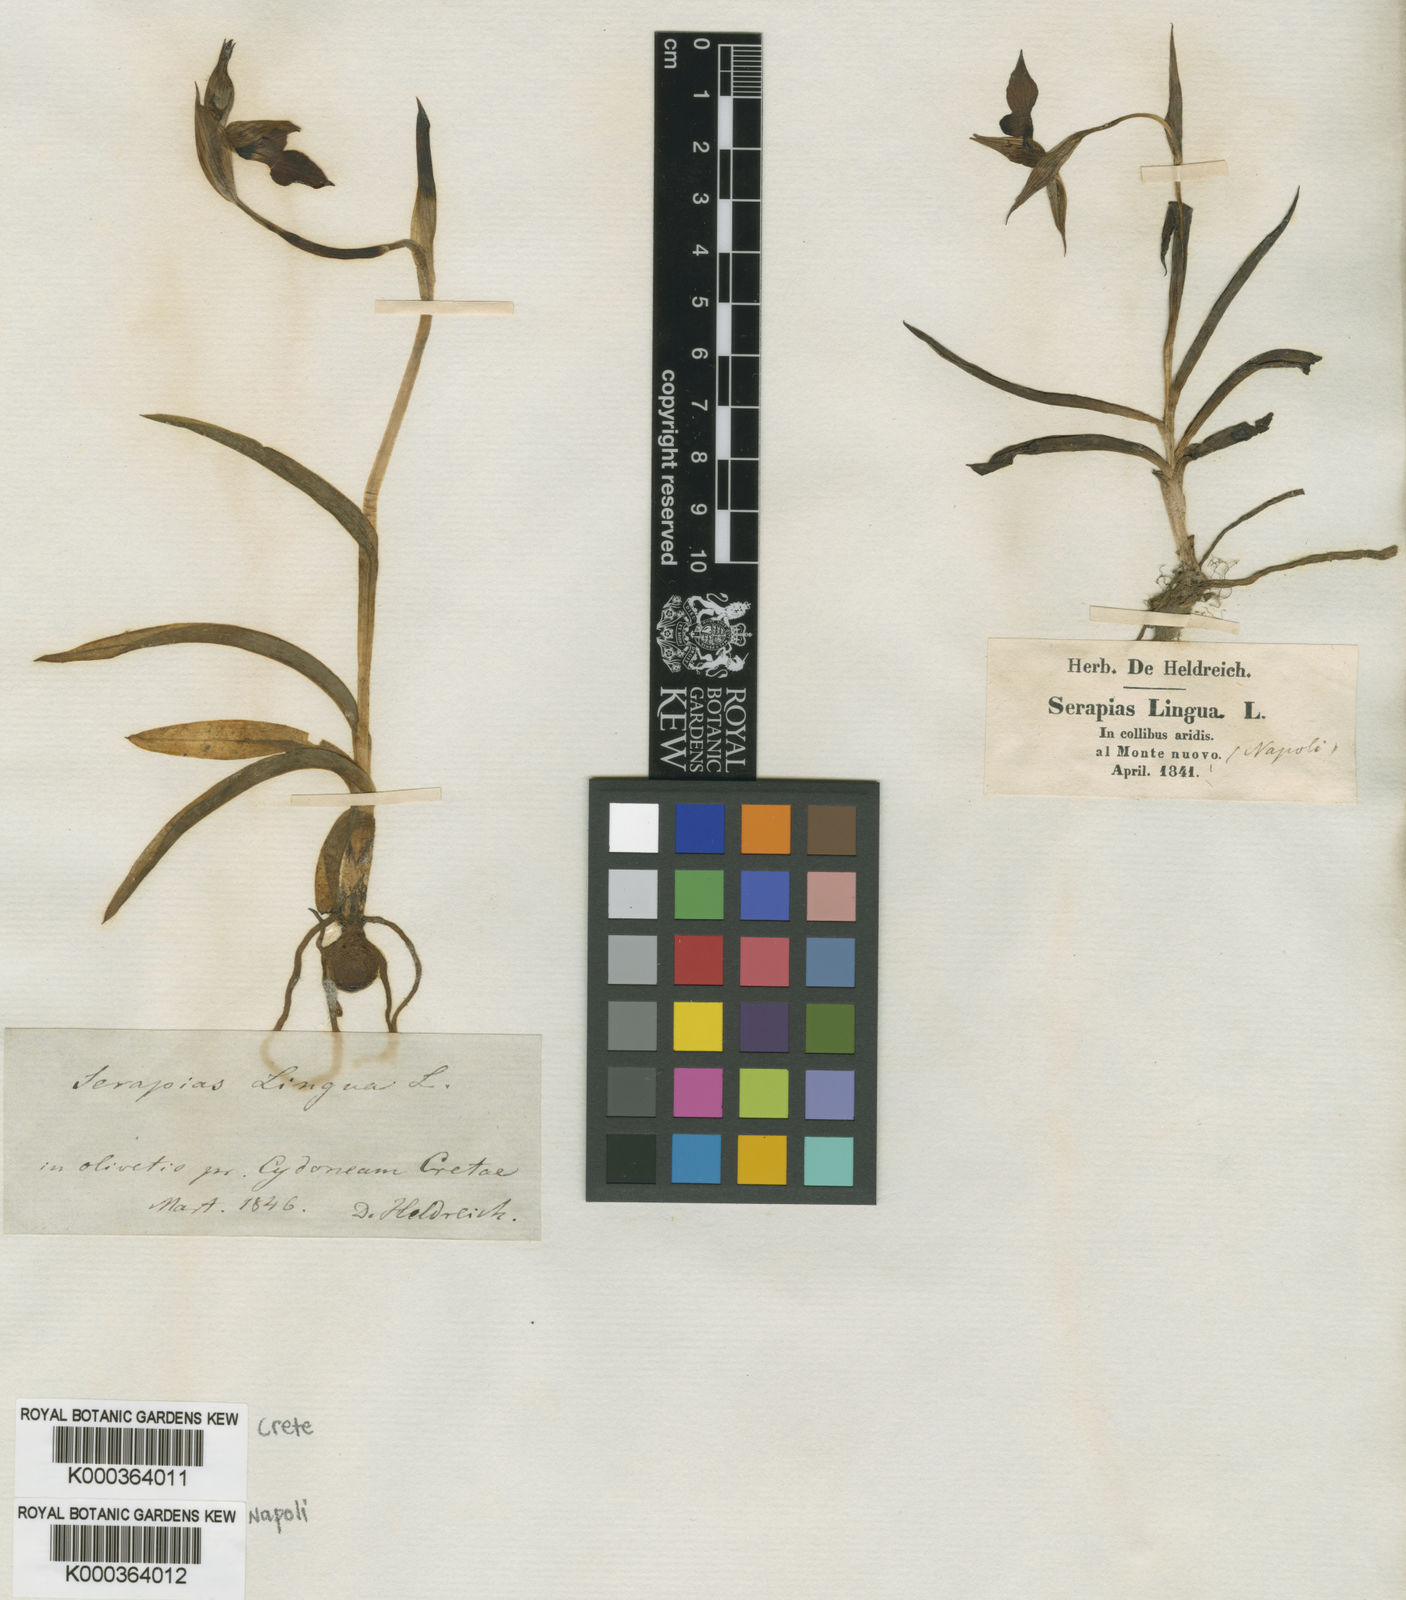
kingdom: Plantae
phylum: Tracheophyta
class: Liliopsida
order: Asparagales
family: Orchidaceae
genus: Serapias
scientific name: Serapias lingua
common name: Tongue-orchid
